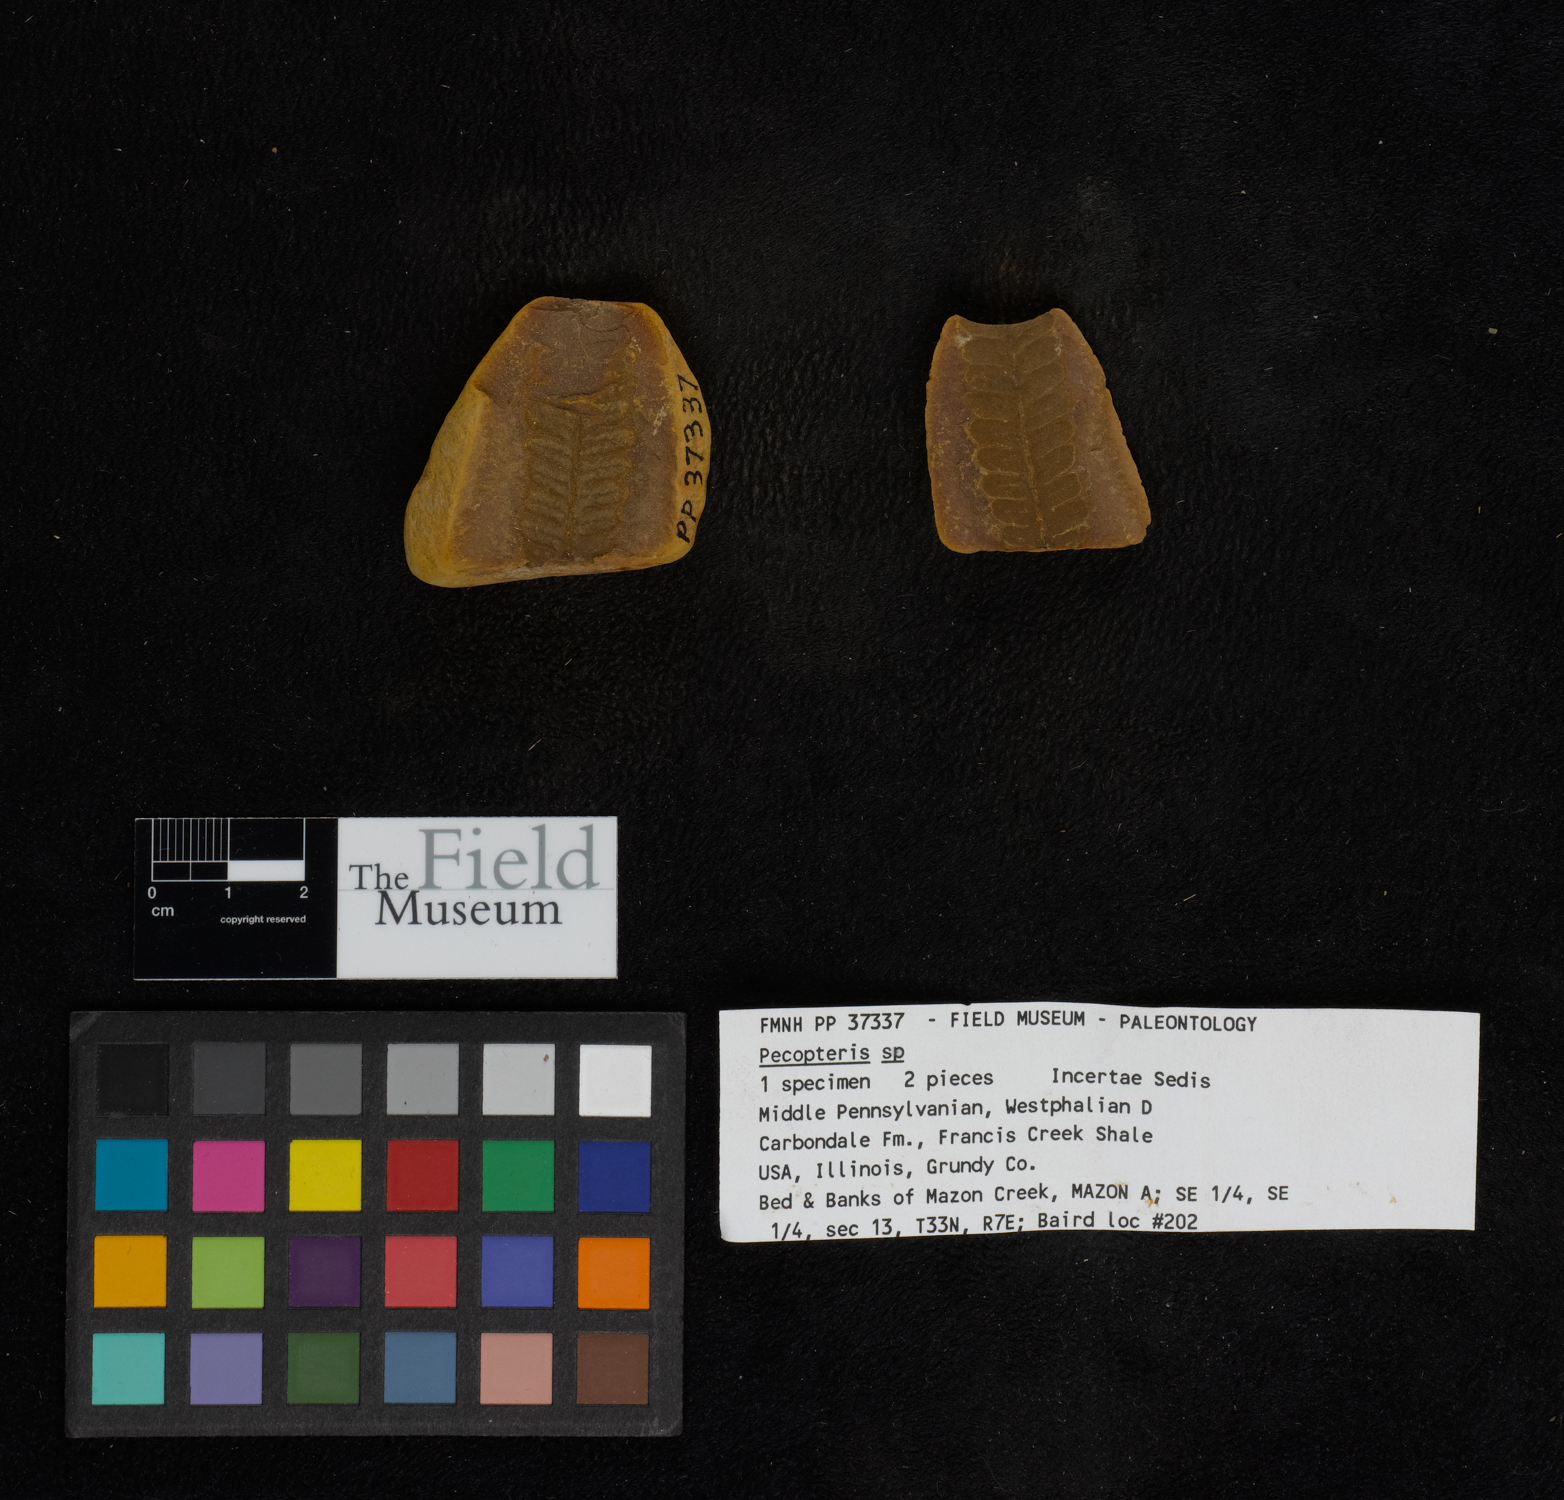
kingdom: Plantae
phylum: Tracheophyta
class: Polypodiopsida
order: Marattiales
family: Asterothecaceae
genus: Pecopteris
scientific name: Pecopteris
